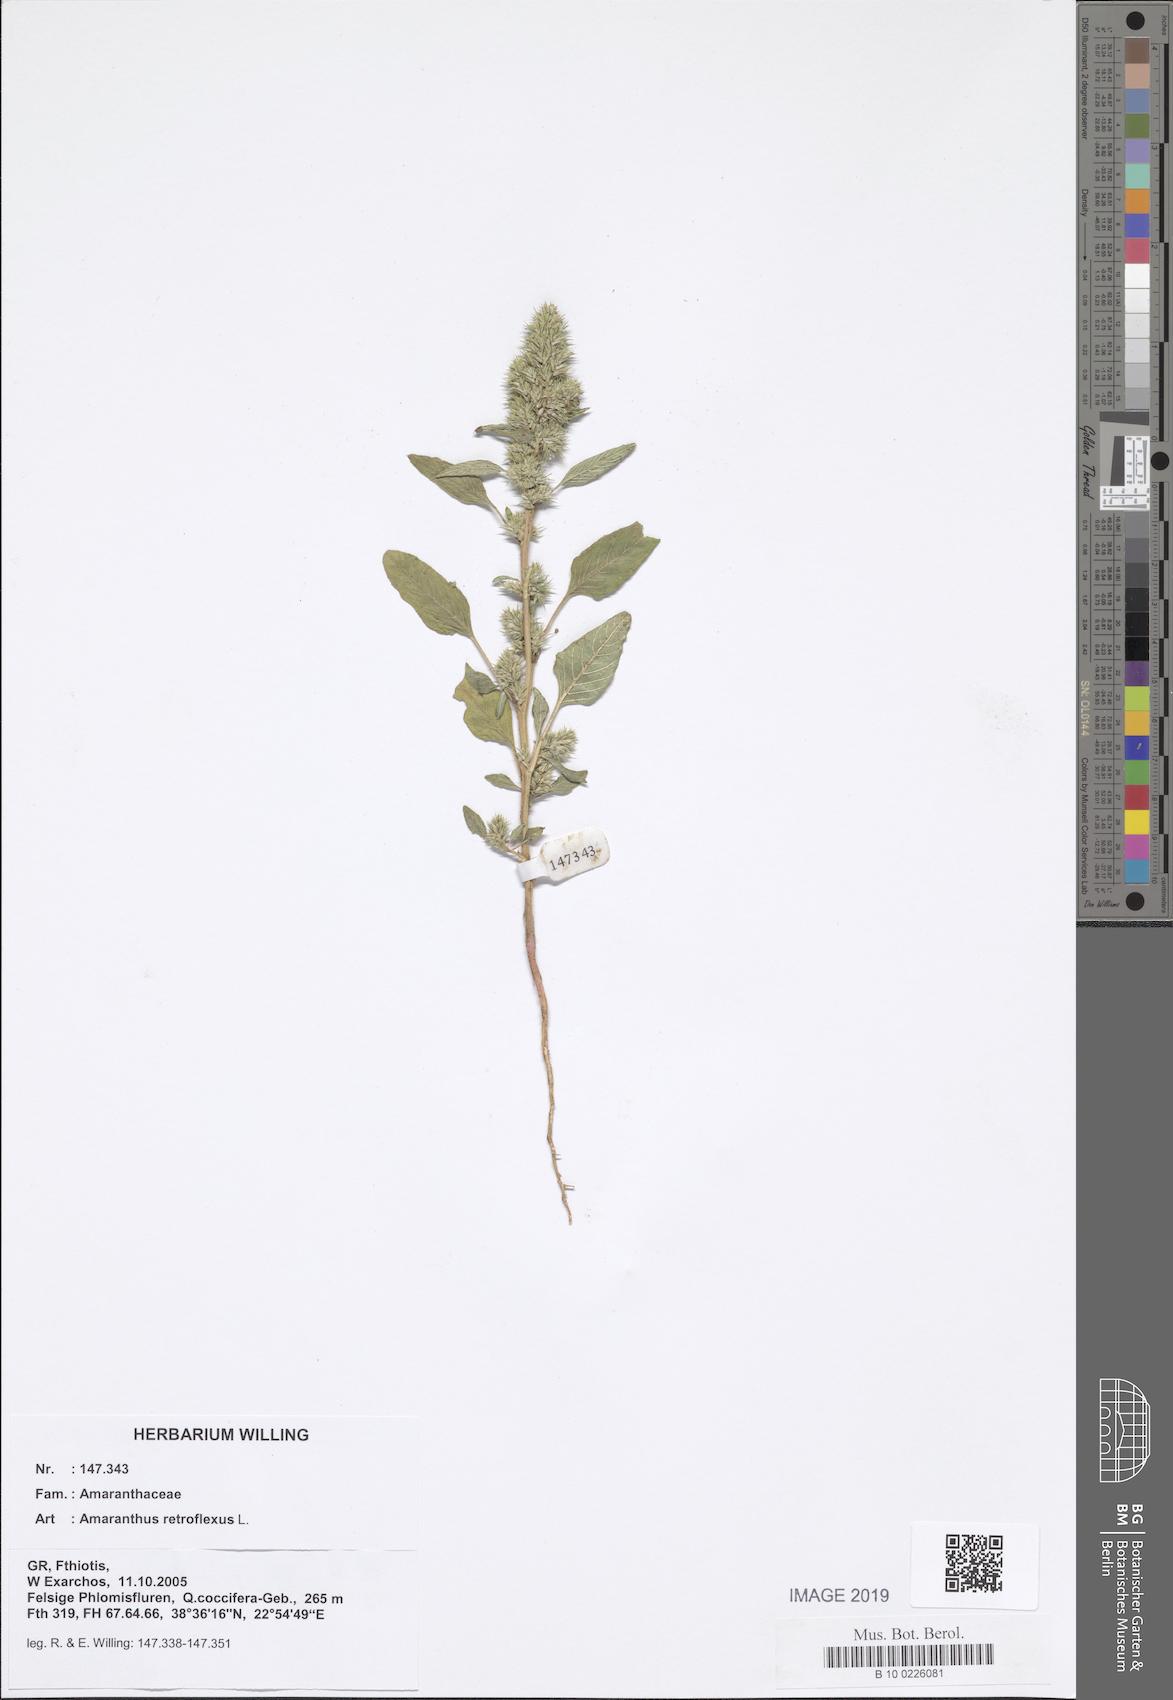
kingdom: Plantae
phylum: Tracheophyta
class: Magnoliopsida
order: Caryophyllales
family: Amaranthaceae
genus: Amaranthus
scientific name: Amaranthus retroflexus
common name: Redroot amaranth
